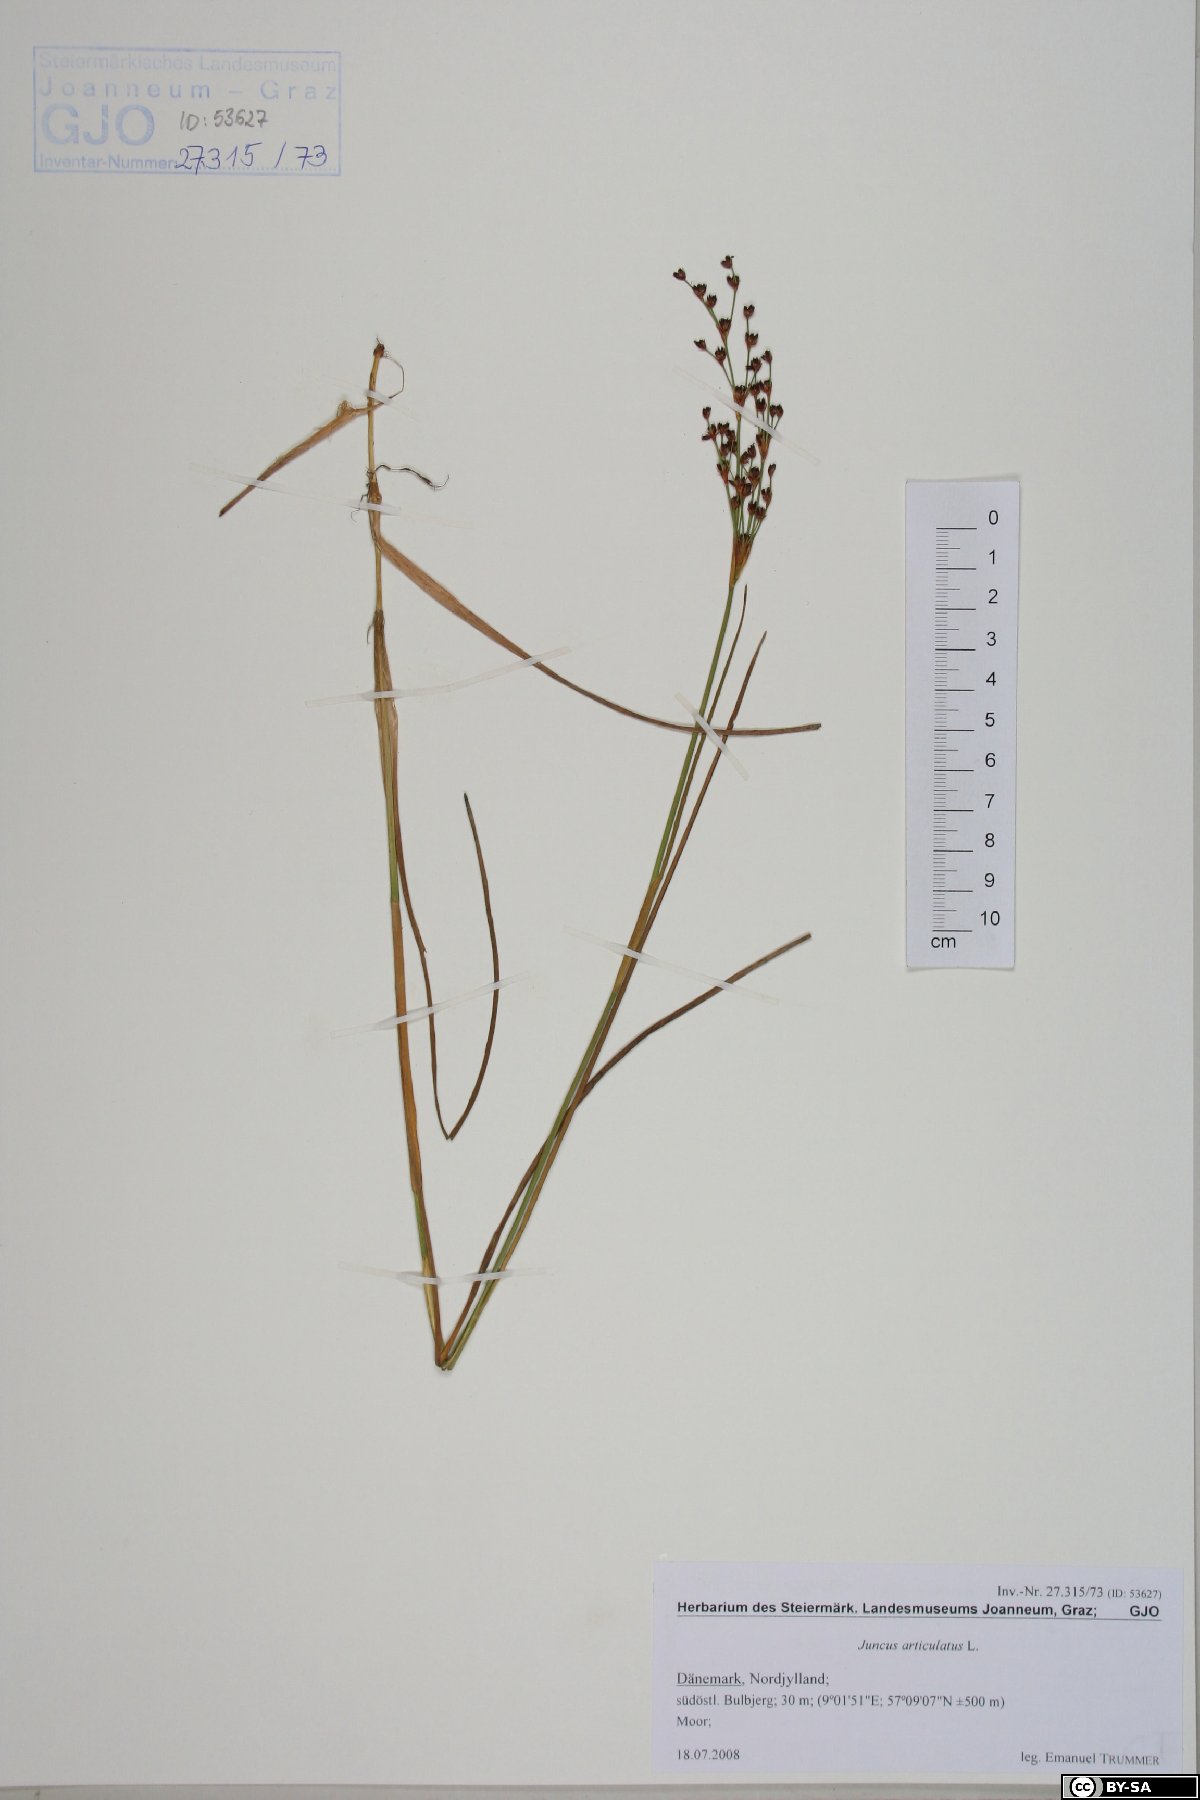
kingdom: Plantae
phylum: Tracheophyta
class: Liliopsida
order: Poales
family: Juncaceae
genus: Juncus
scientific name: Juncus articulatus
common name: Jointed rush
